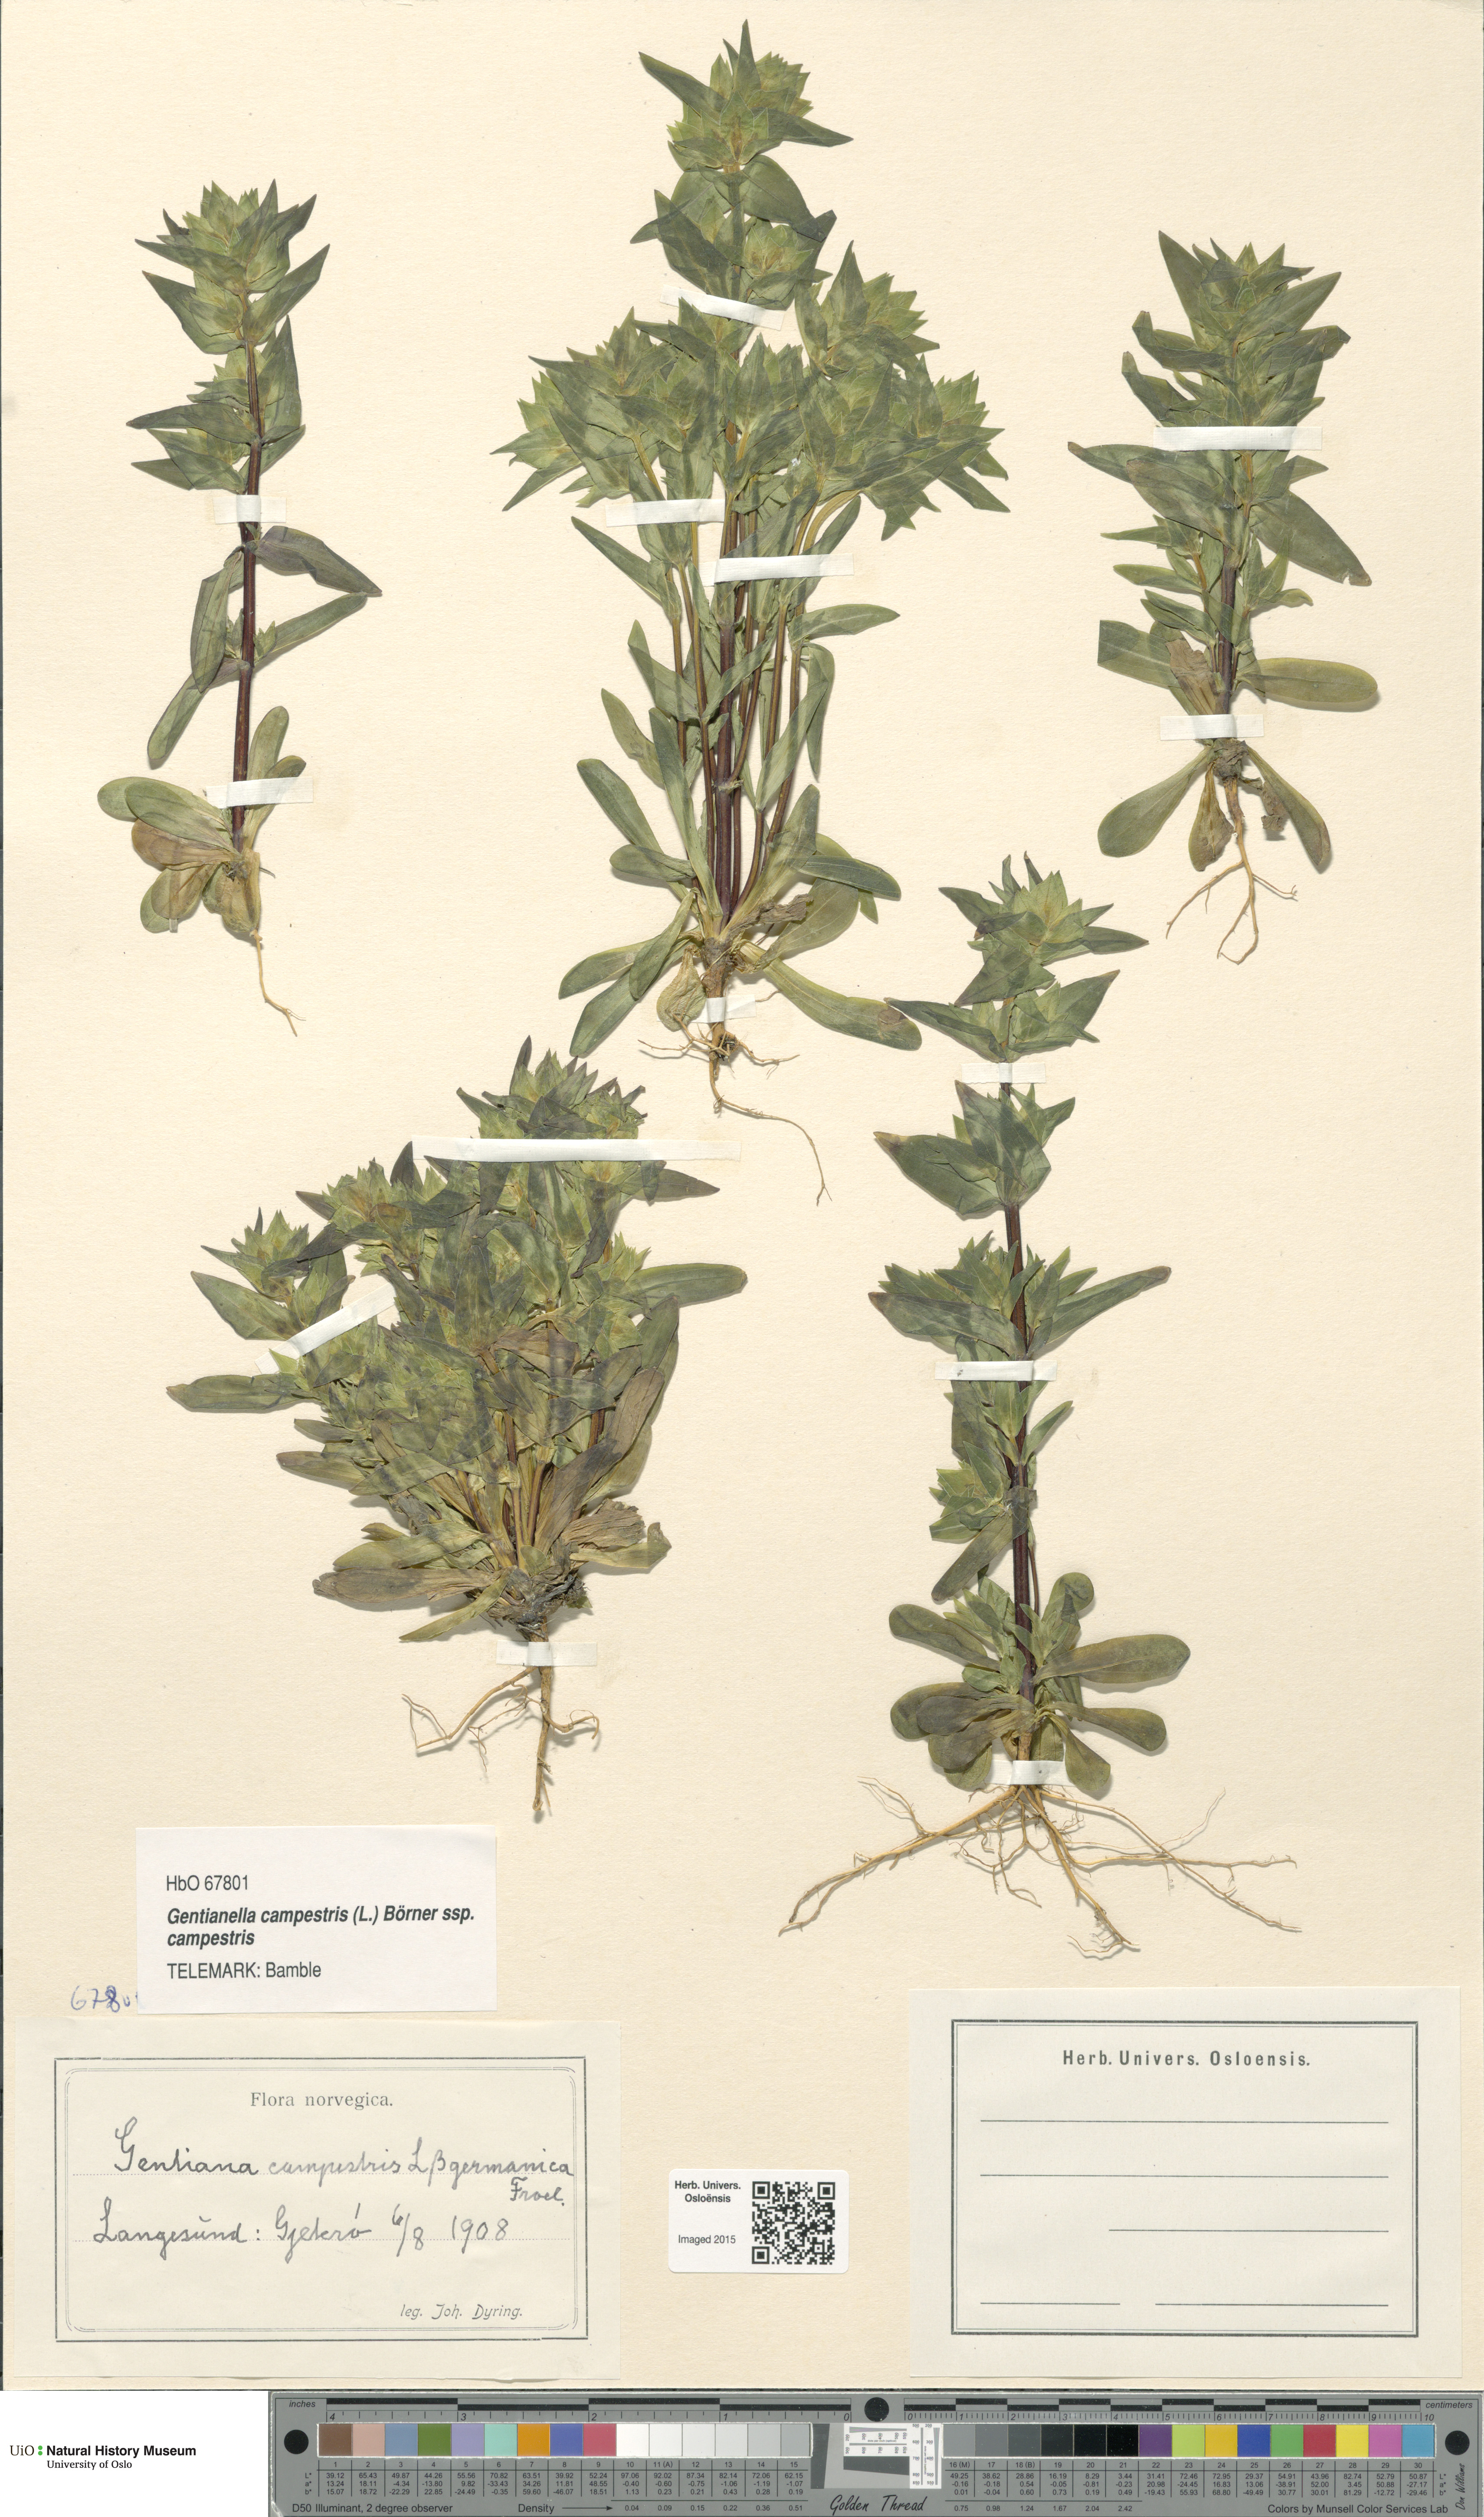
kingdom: Plantae
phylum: Tracheophyta
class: Magnoliopsida
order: Gentianales
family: Gentianaceae
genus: Gentianella
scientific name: Gentianella campestris
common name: Field gentian
